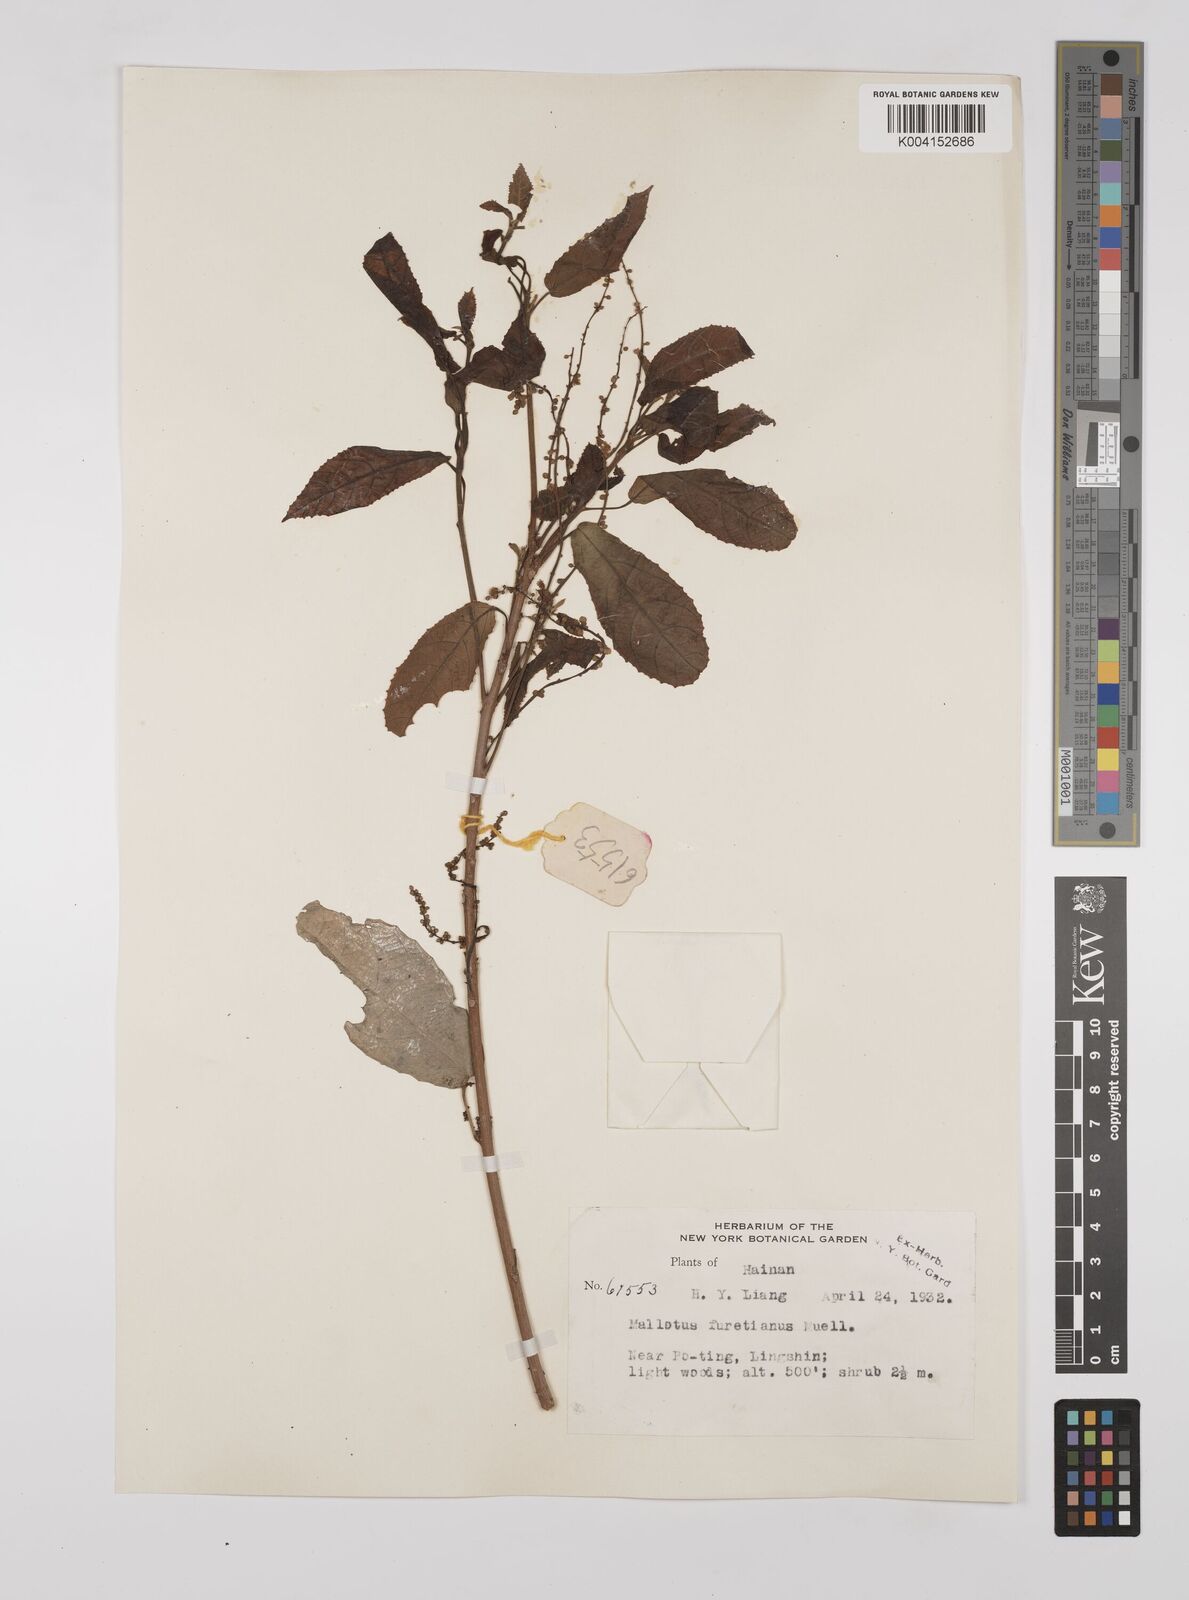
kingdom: Plantae
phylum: Tracheophyta
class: Magnoliopsida
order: Malpighiales
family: Euphorbiaceae
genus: Mallotus
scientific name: Mallotus peltatus
